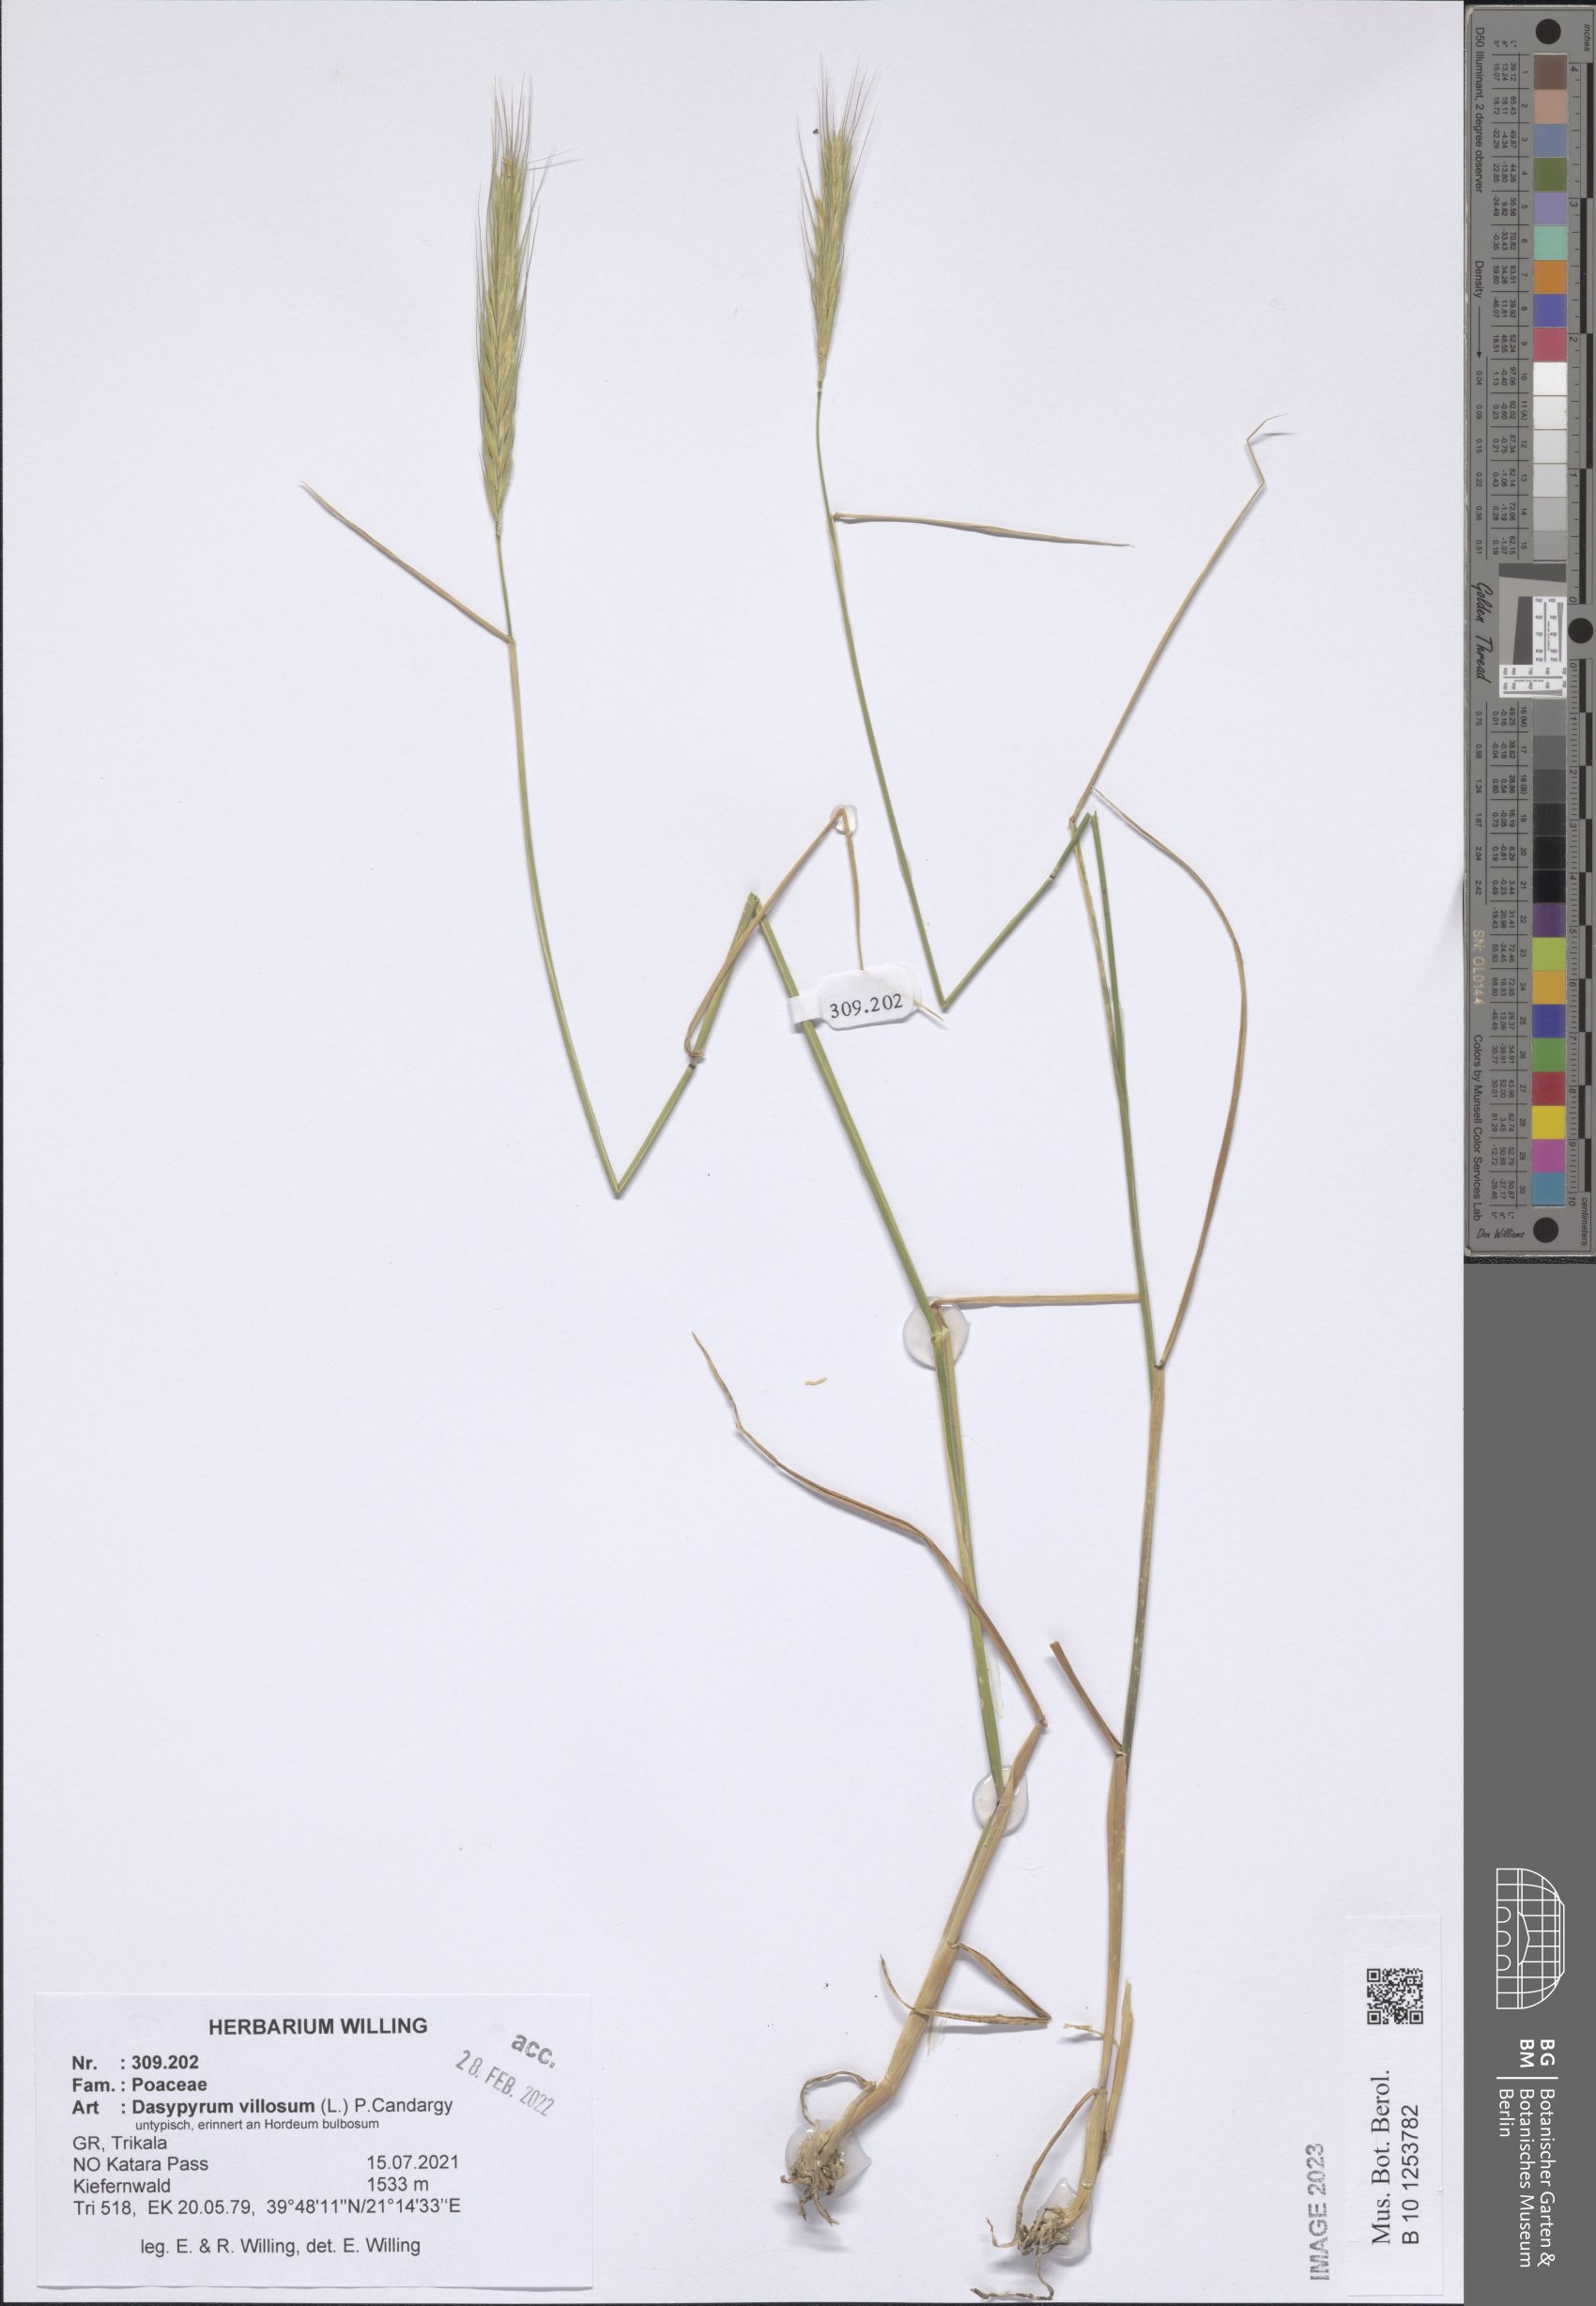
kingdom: Plantae
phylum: Tracheophyta
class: Liliopsida
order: Poales
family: Poaceae
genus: Dasypyrum
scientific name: Dasypyrum villosum
